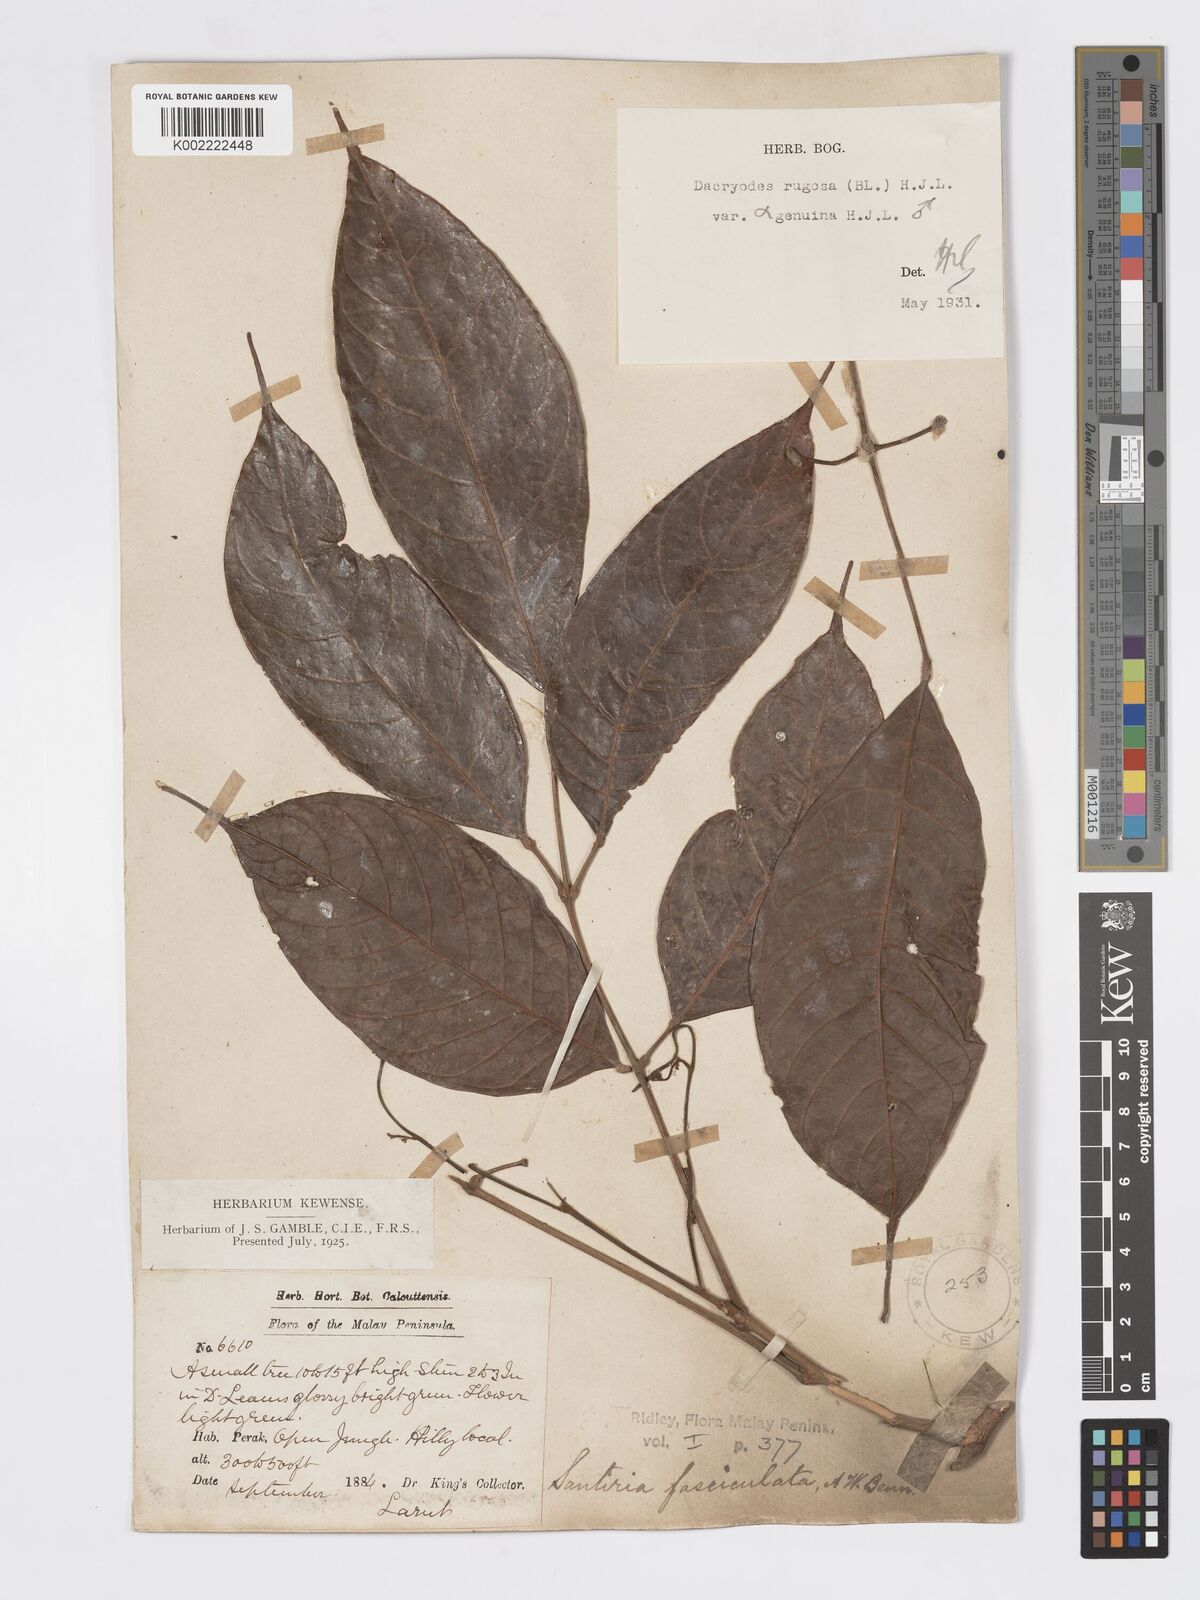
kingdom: Plantae
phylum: Tracheophyta
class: Magnoliopsida
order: Sapindales
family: Burseraceae
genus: Dacryodes
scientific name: Dacryodes rugosa
